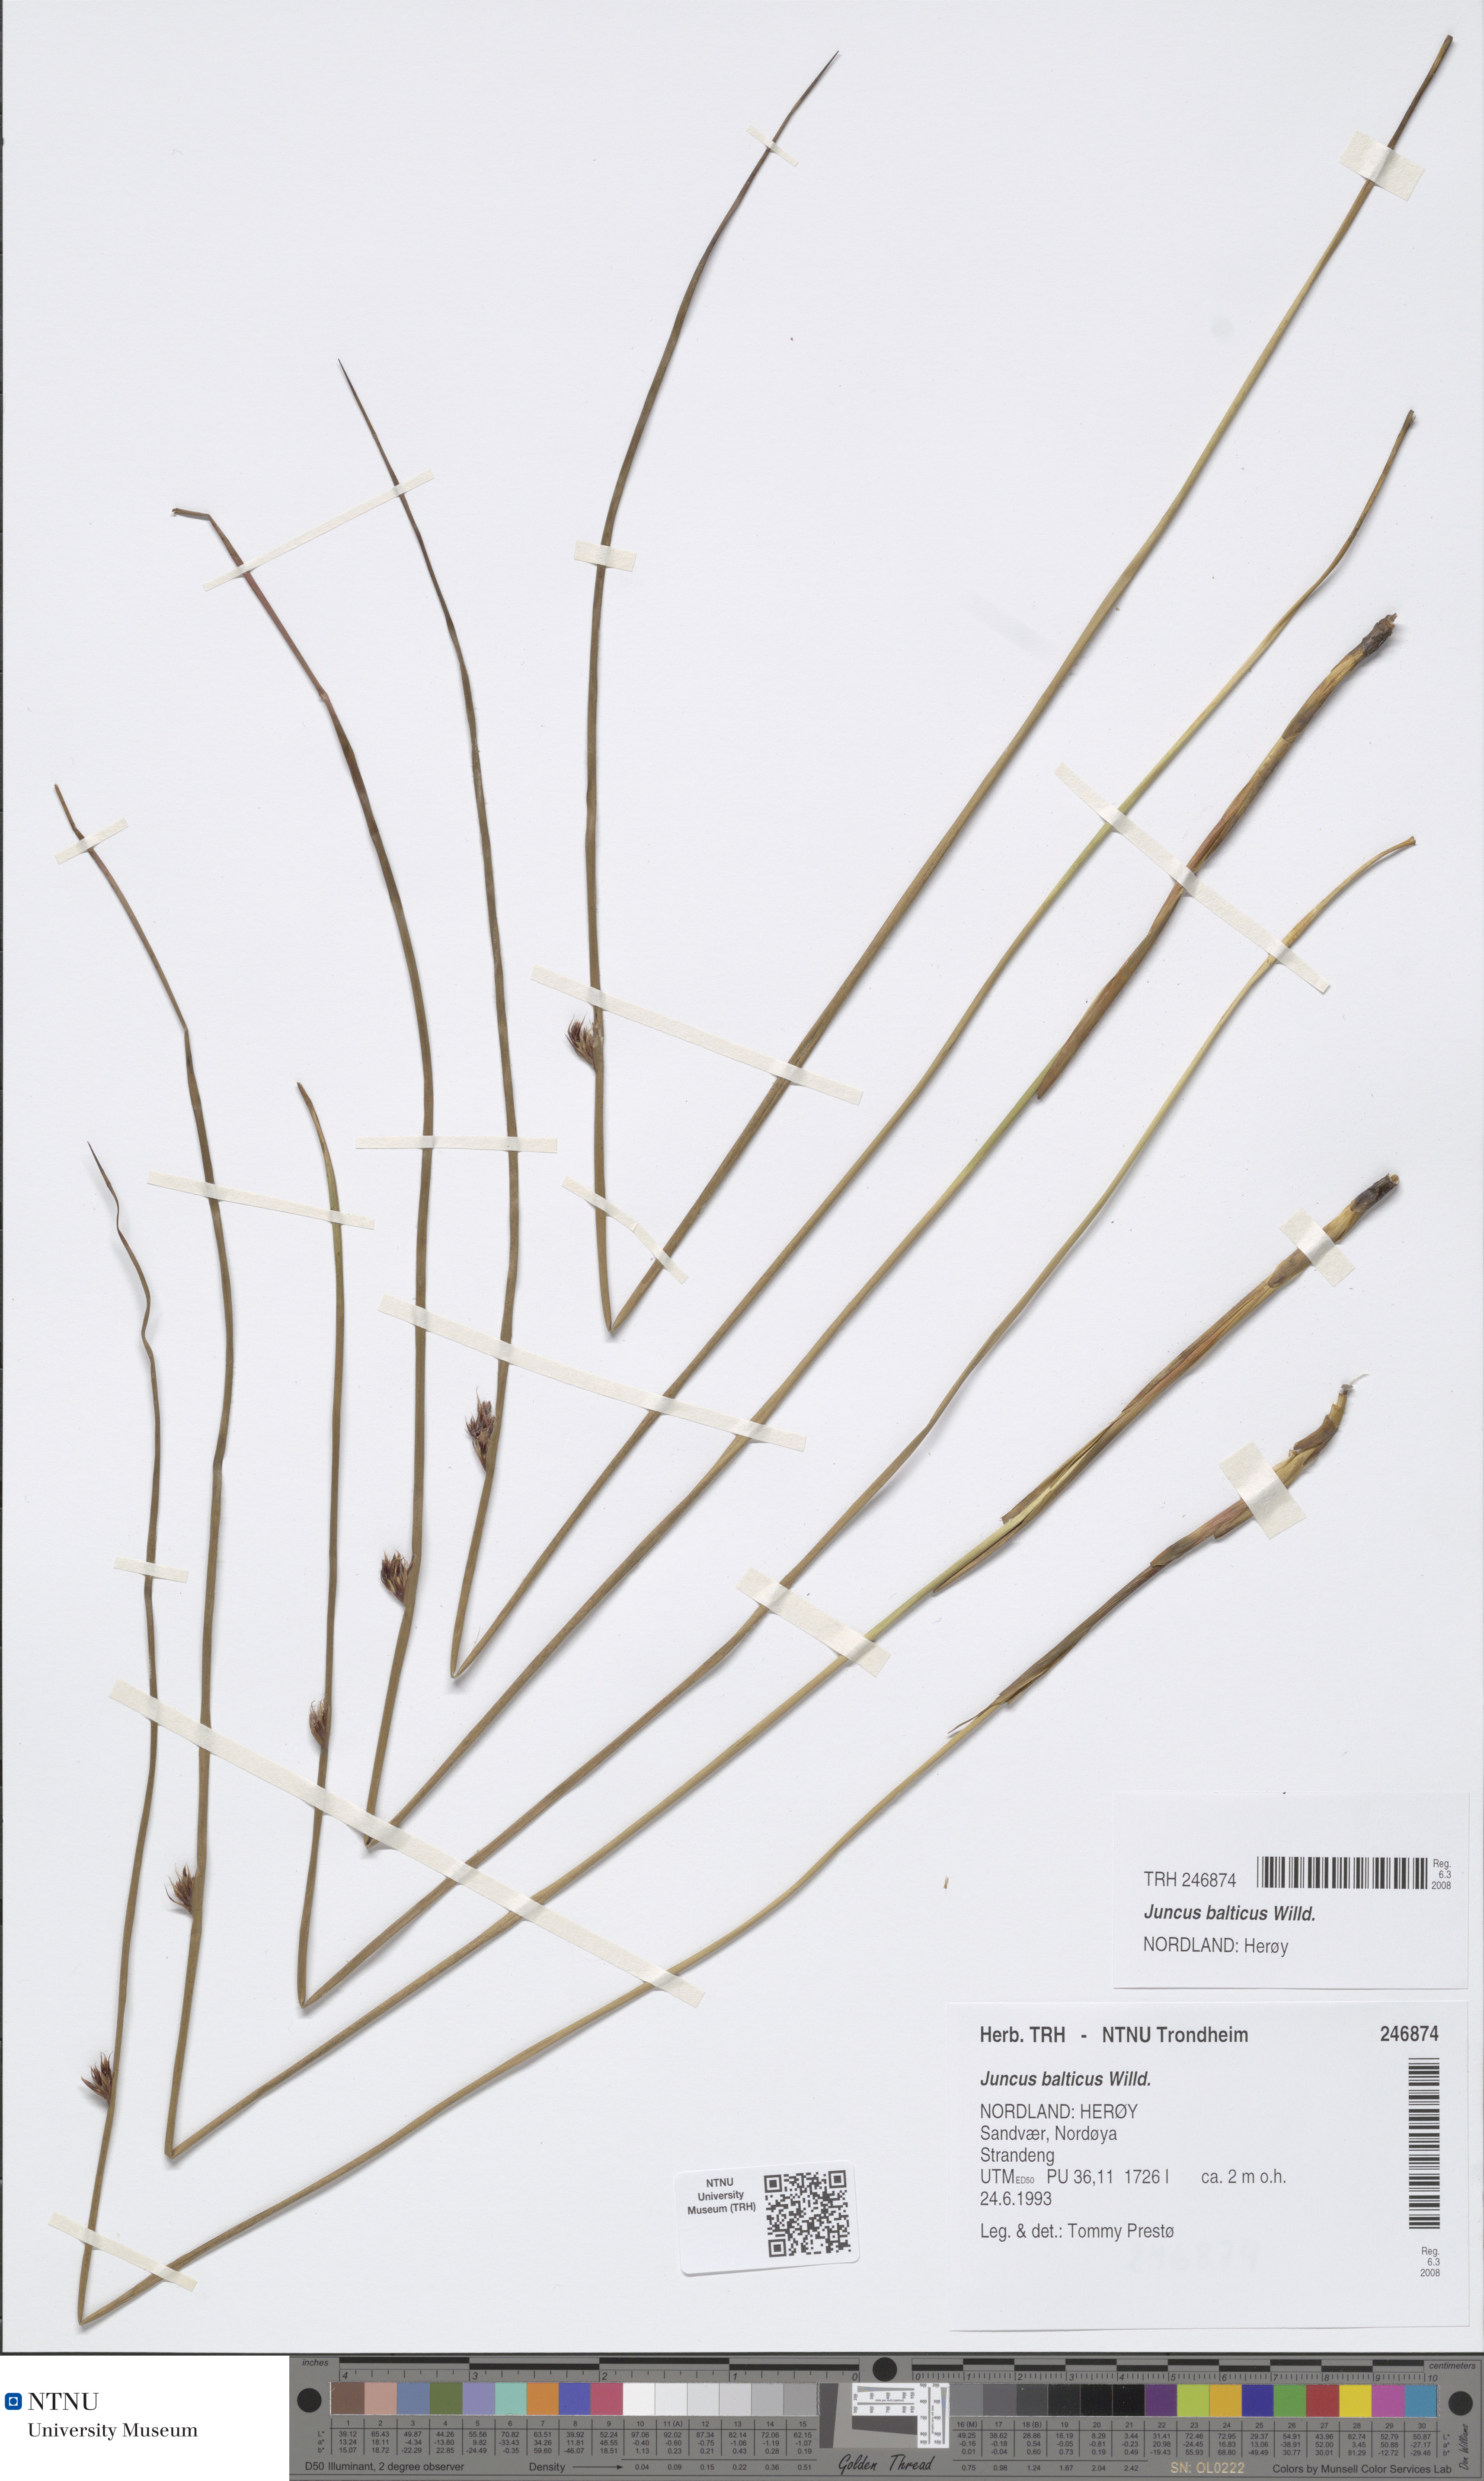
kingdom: Plantae
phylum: Tracheophyta
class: Liliopsida
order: Poales
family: Juncaceae
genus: Juncus
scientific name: Juncus balticus
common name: Baltic rush
